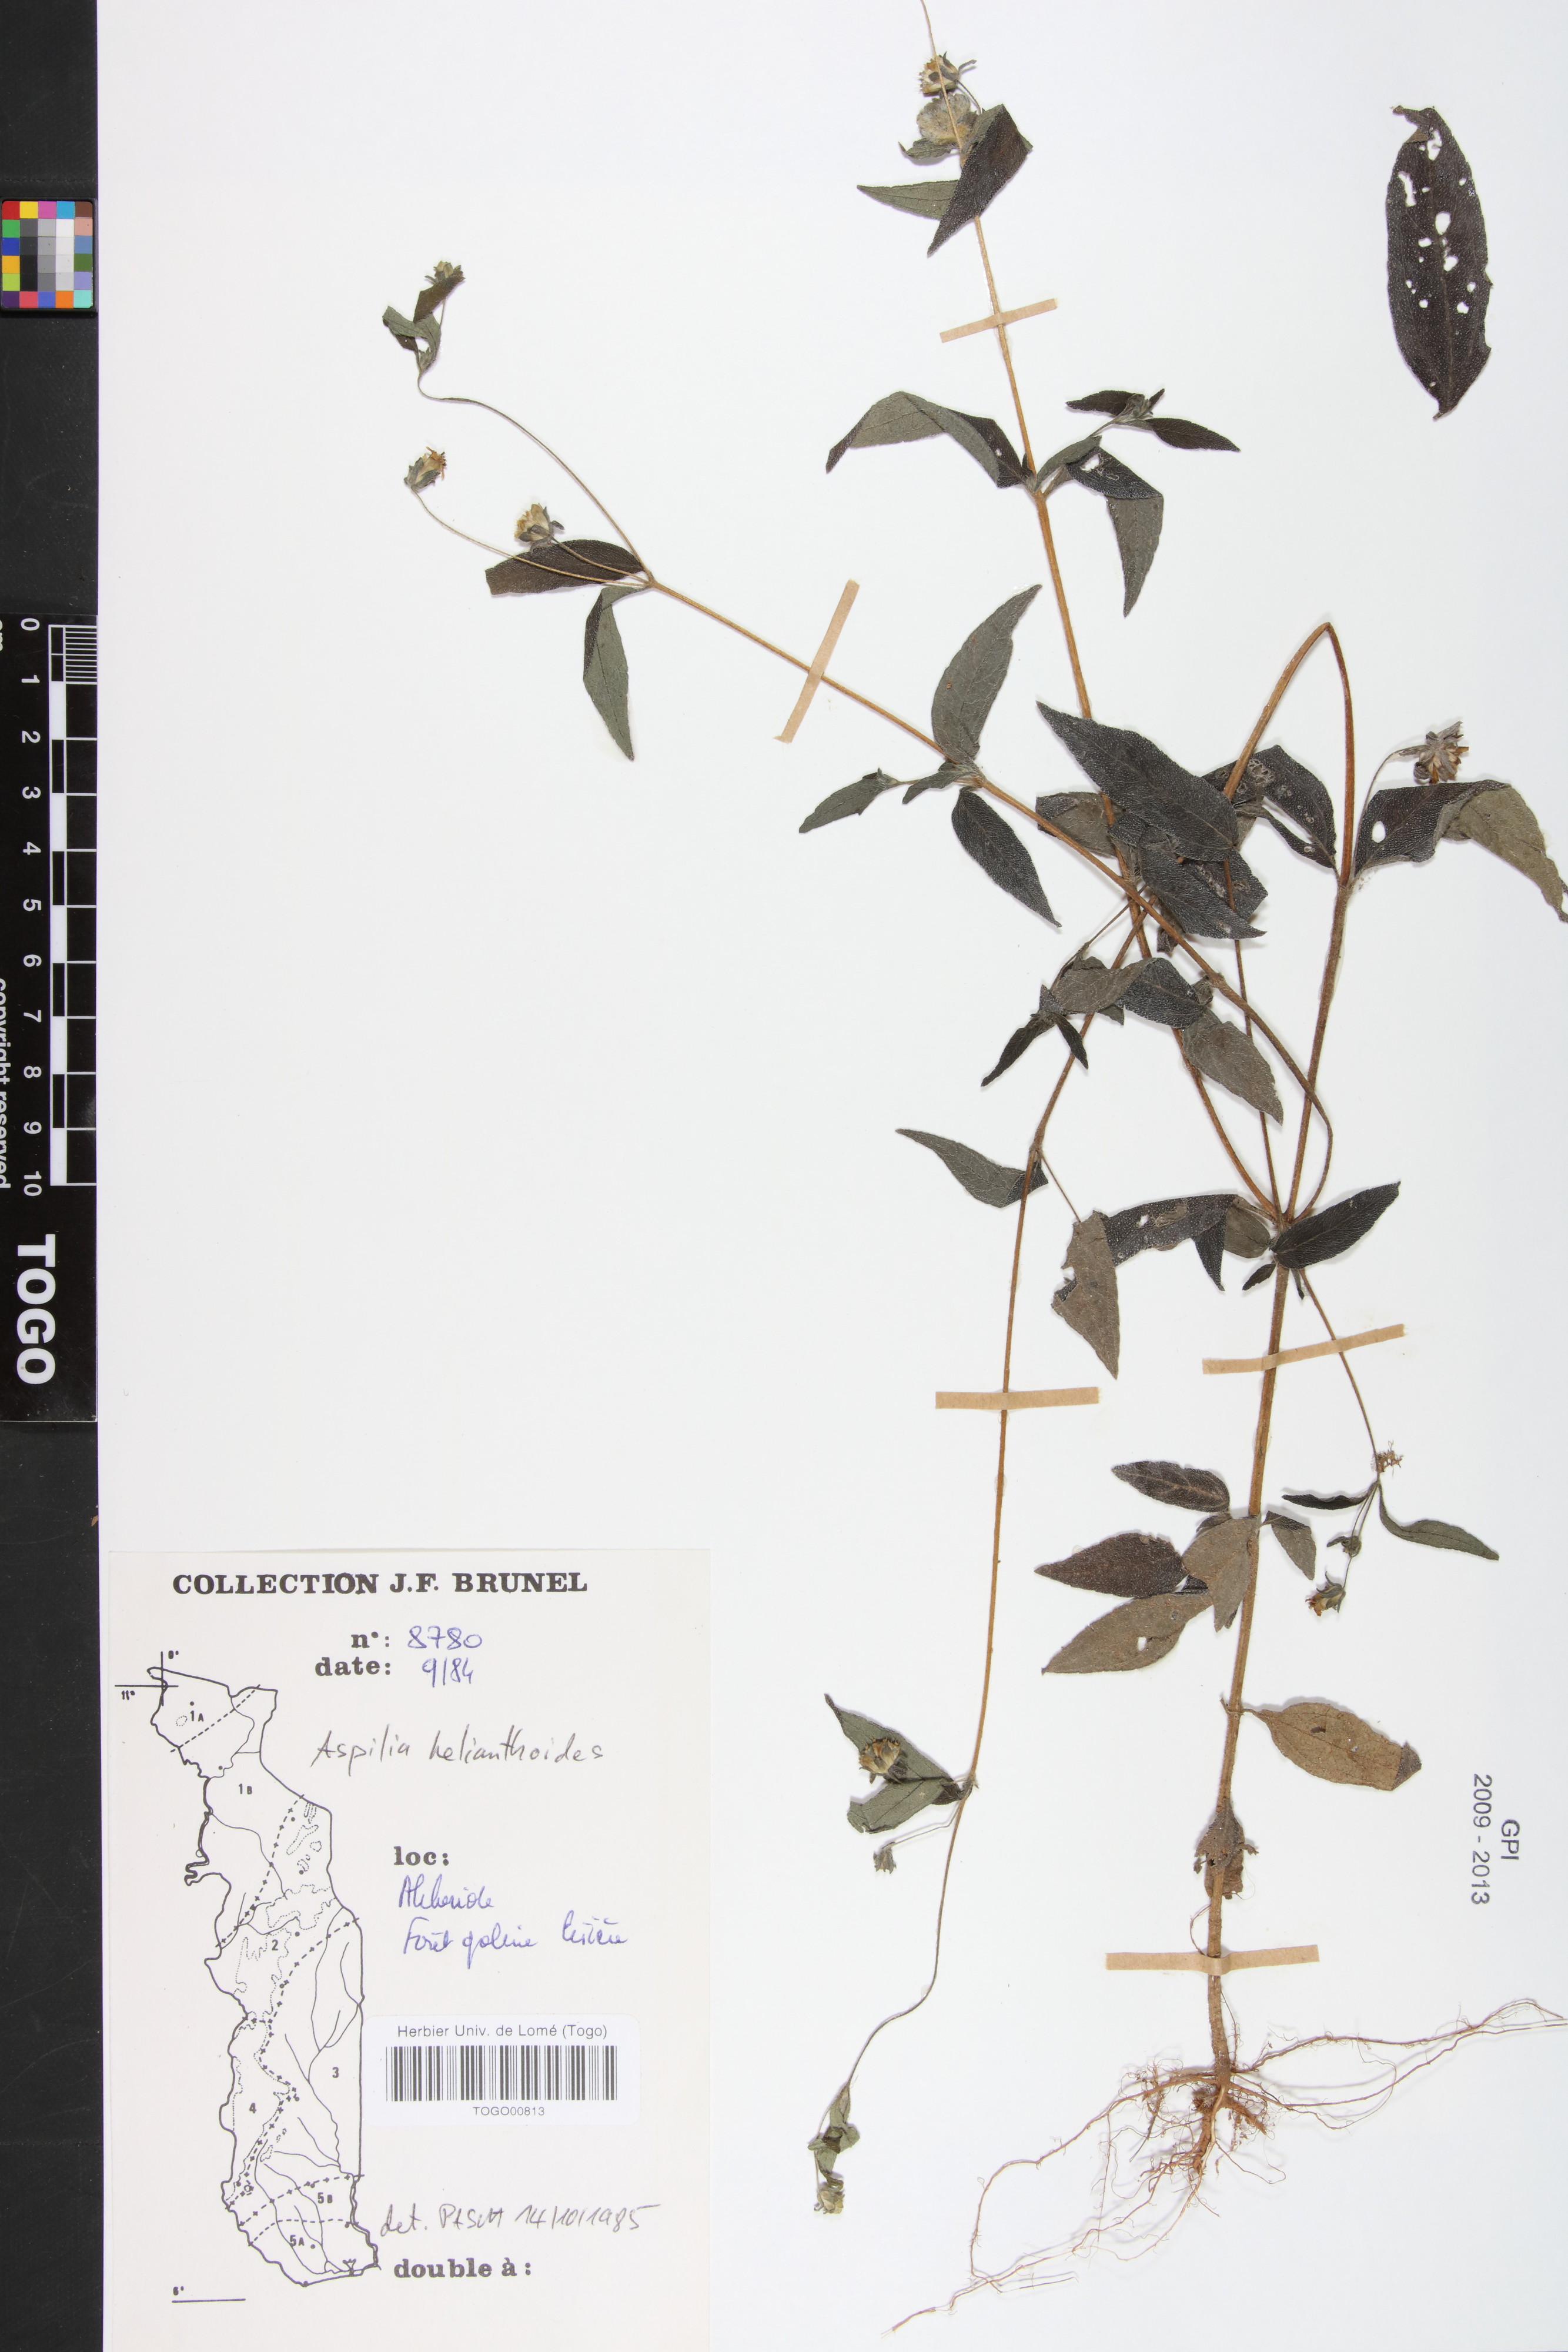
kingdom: Plantae
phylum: Tracheophyta
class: Magnoliopsida
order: Asterales
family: Asteraceae
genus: Aspilia
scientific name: Aspilia helianthoides
